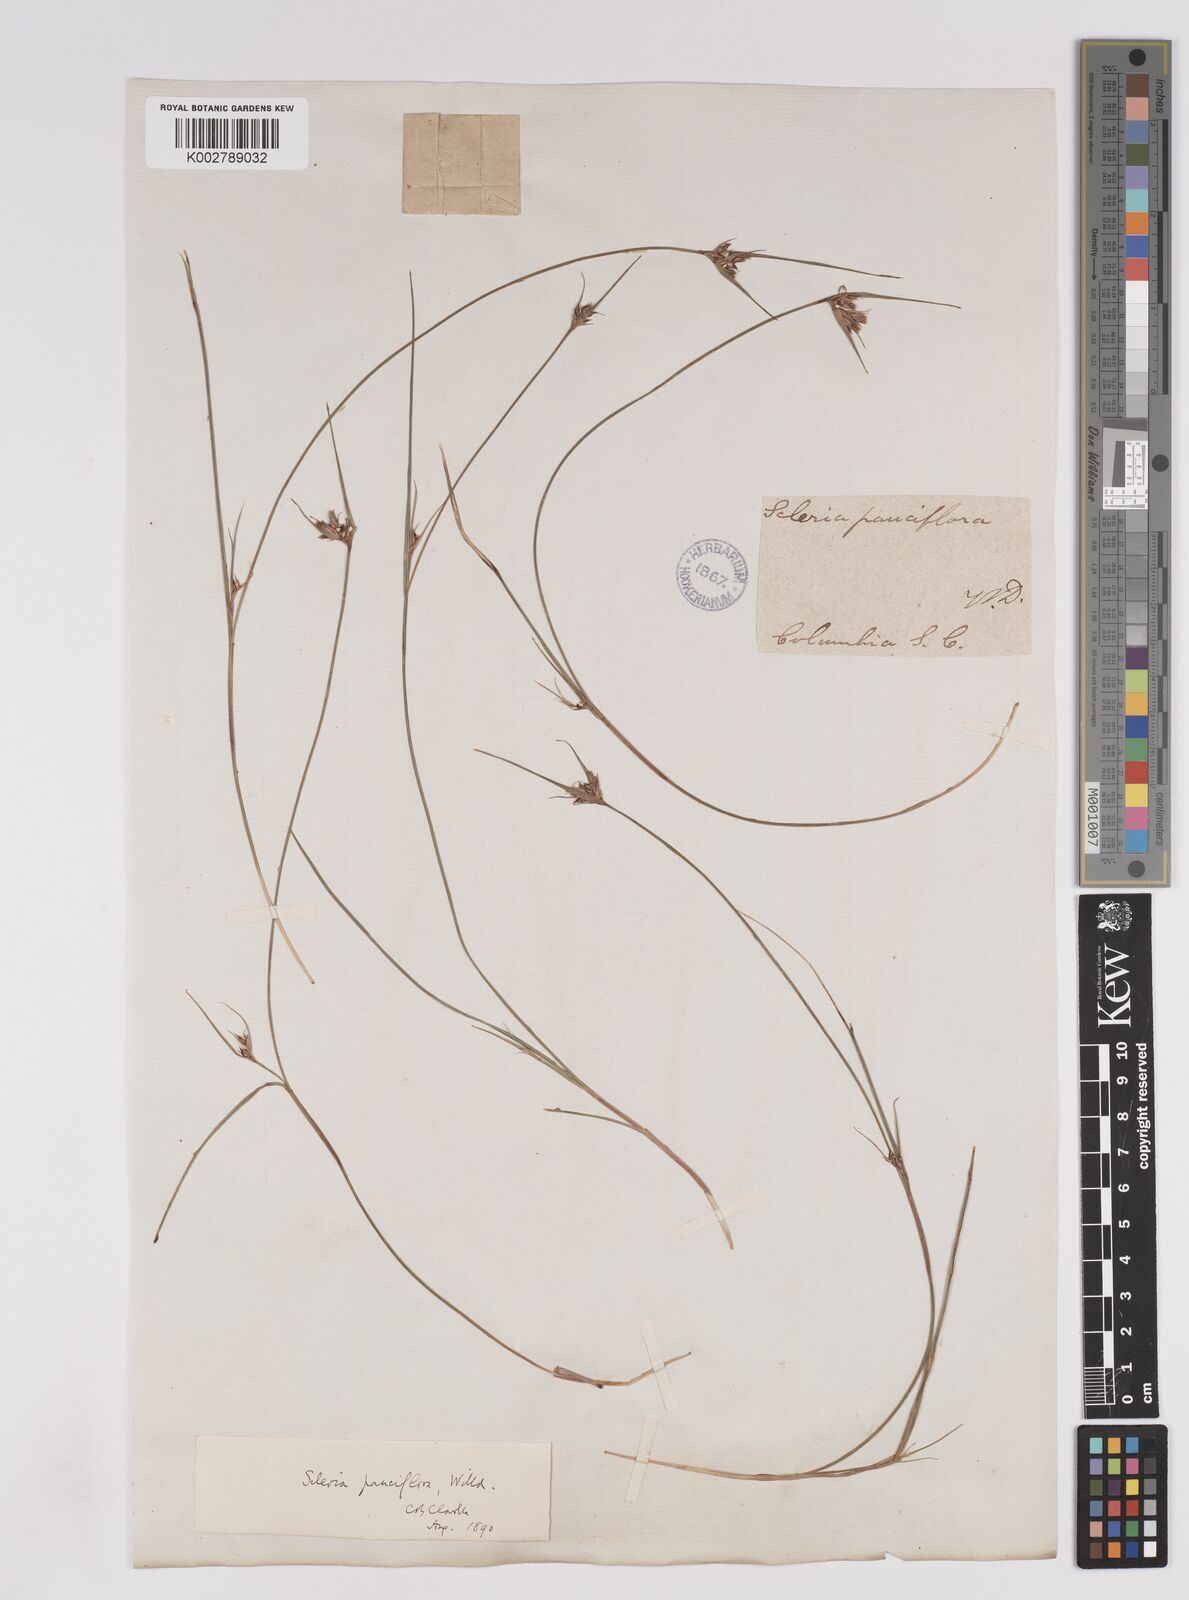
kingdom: Plantae
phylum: Tracheophyta
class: Liliopsida
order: Poales
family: Cyperaceae
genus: Scleria
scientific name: Scleria pauciflora
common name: Few-flowered nutrush
